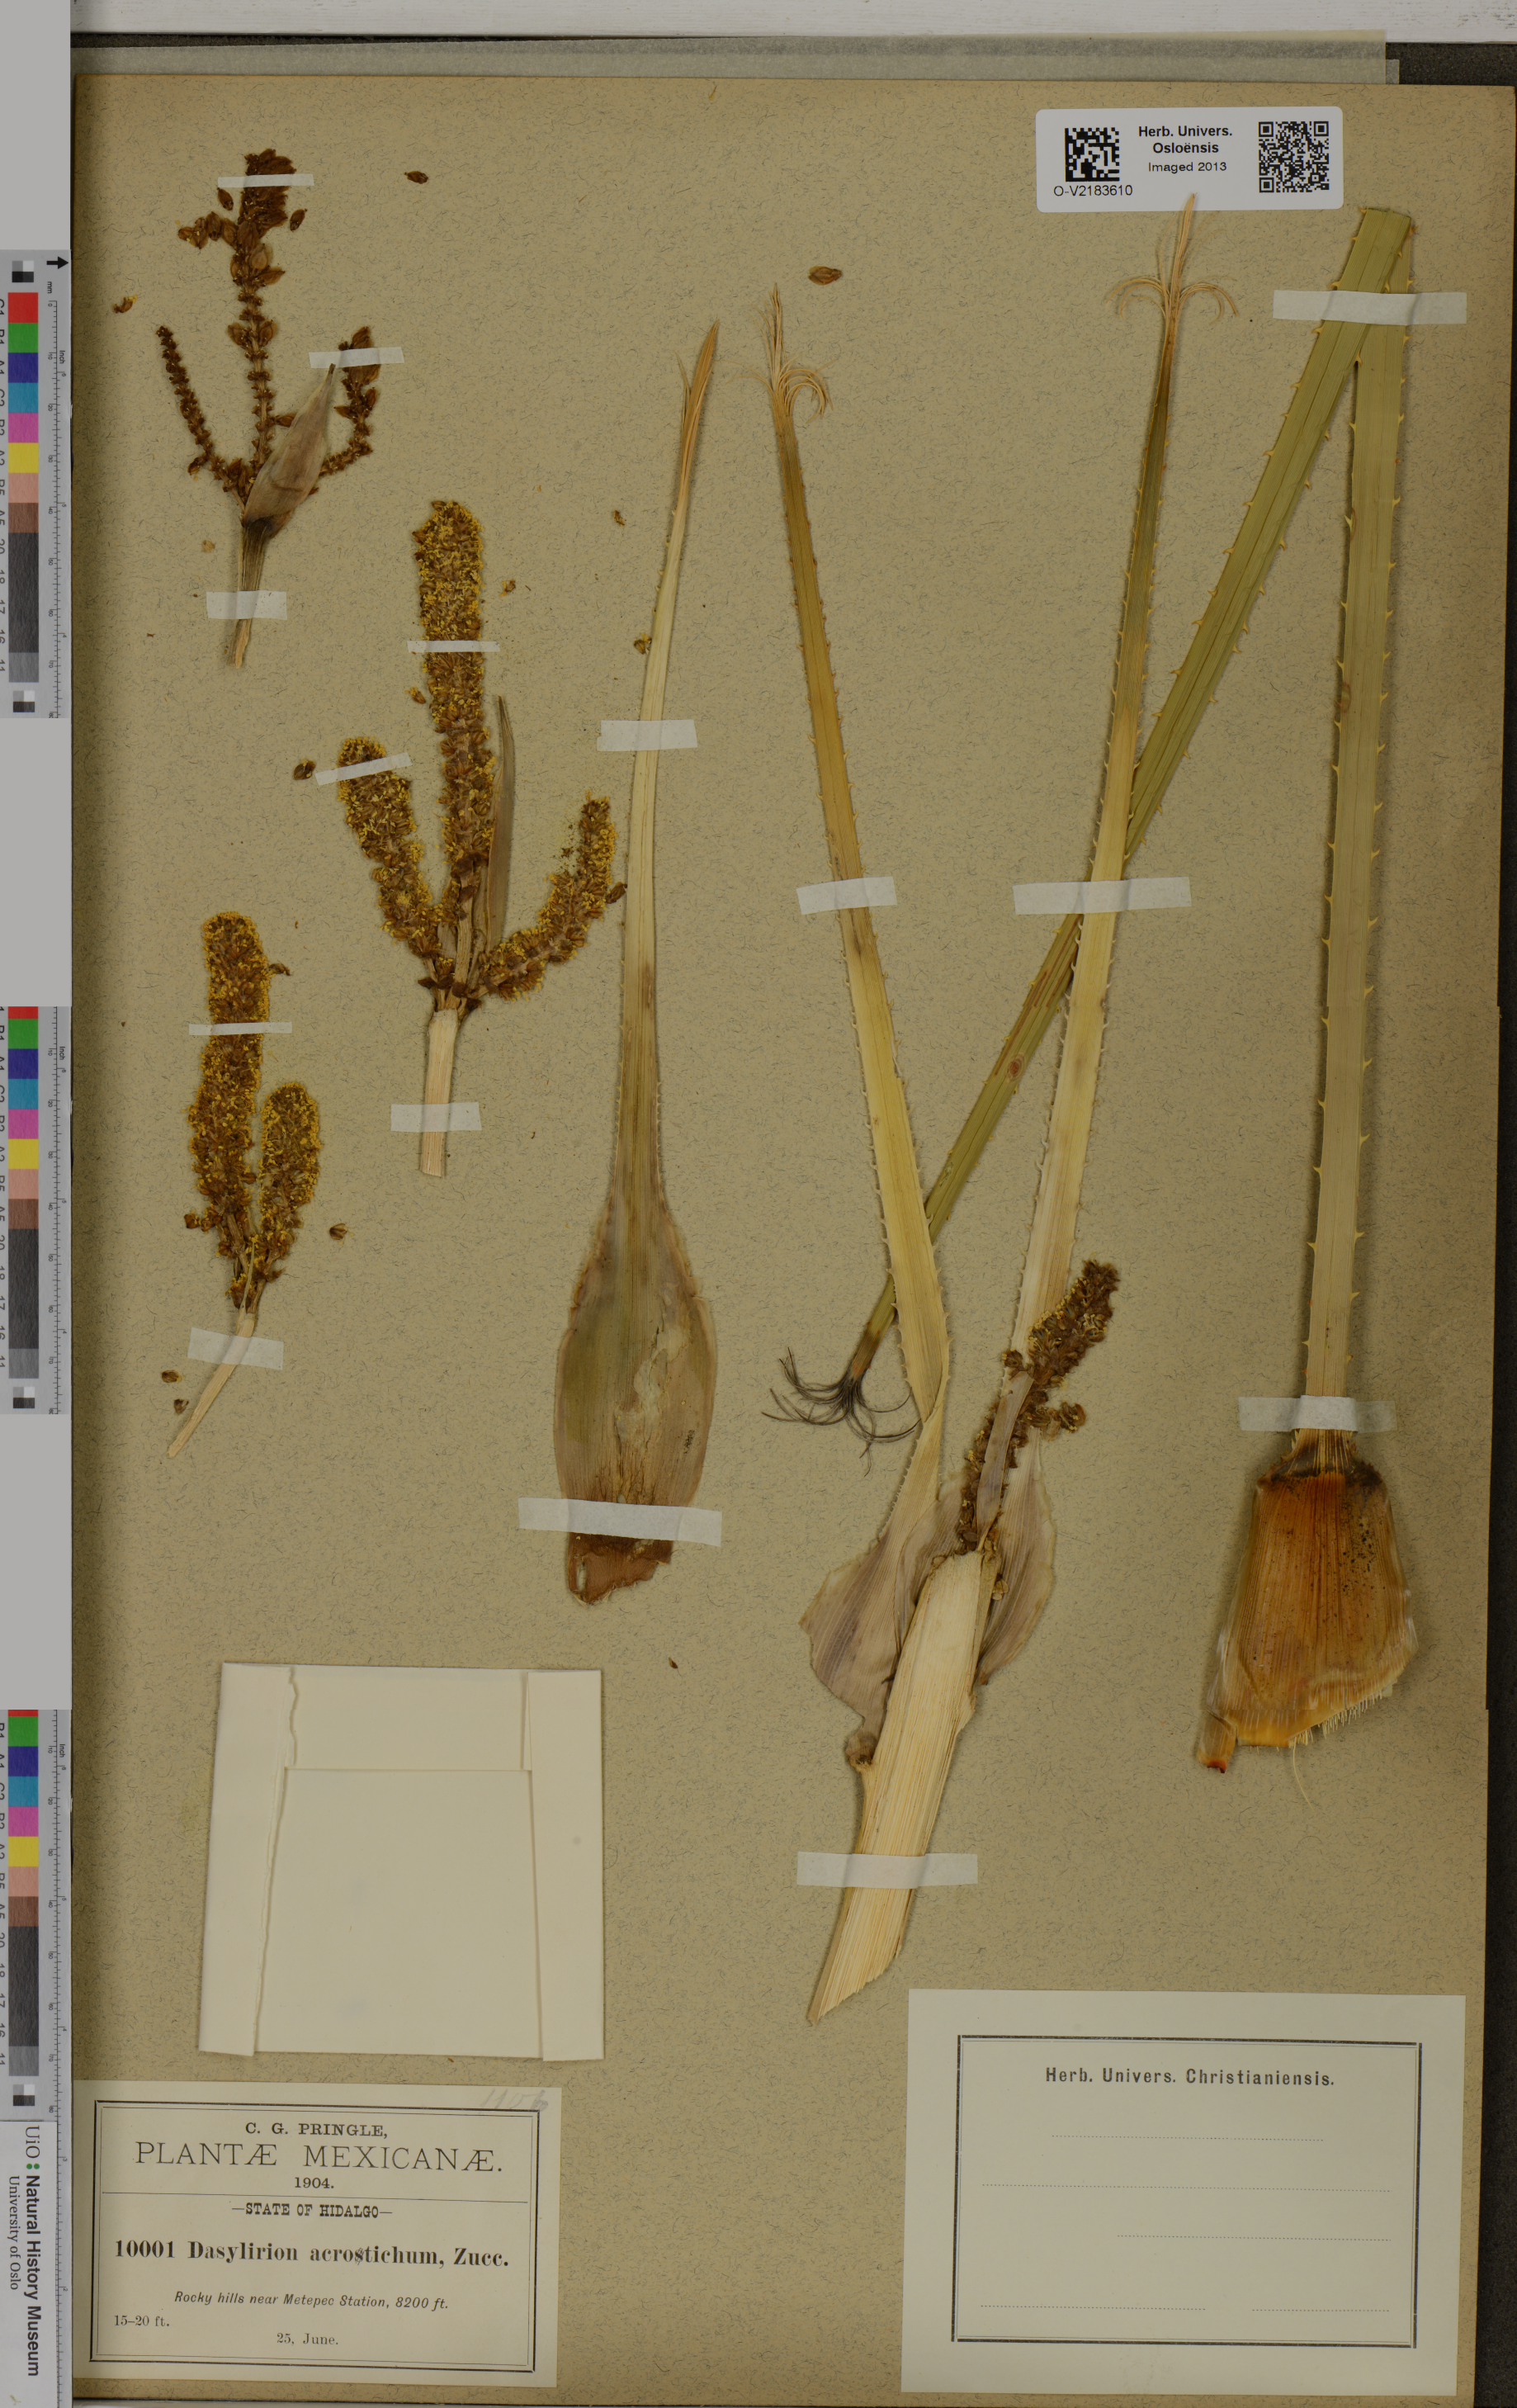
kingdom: Plantae
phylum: Tracheophyta
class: Liliopsida
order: Asparagales
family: Asparagaceae
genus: Dasylirion
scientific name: Dasylirion acrotrichum
